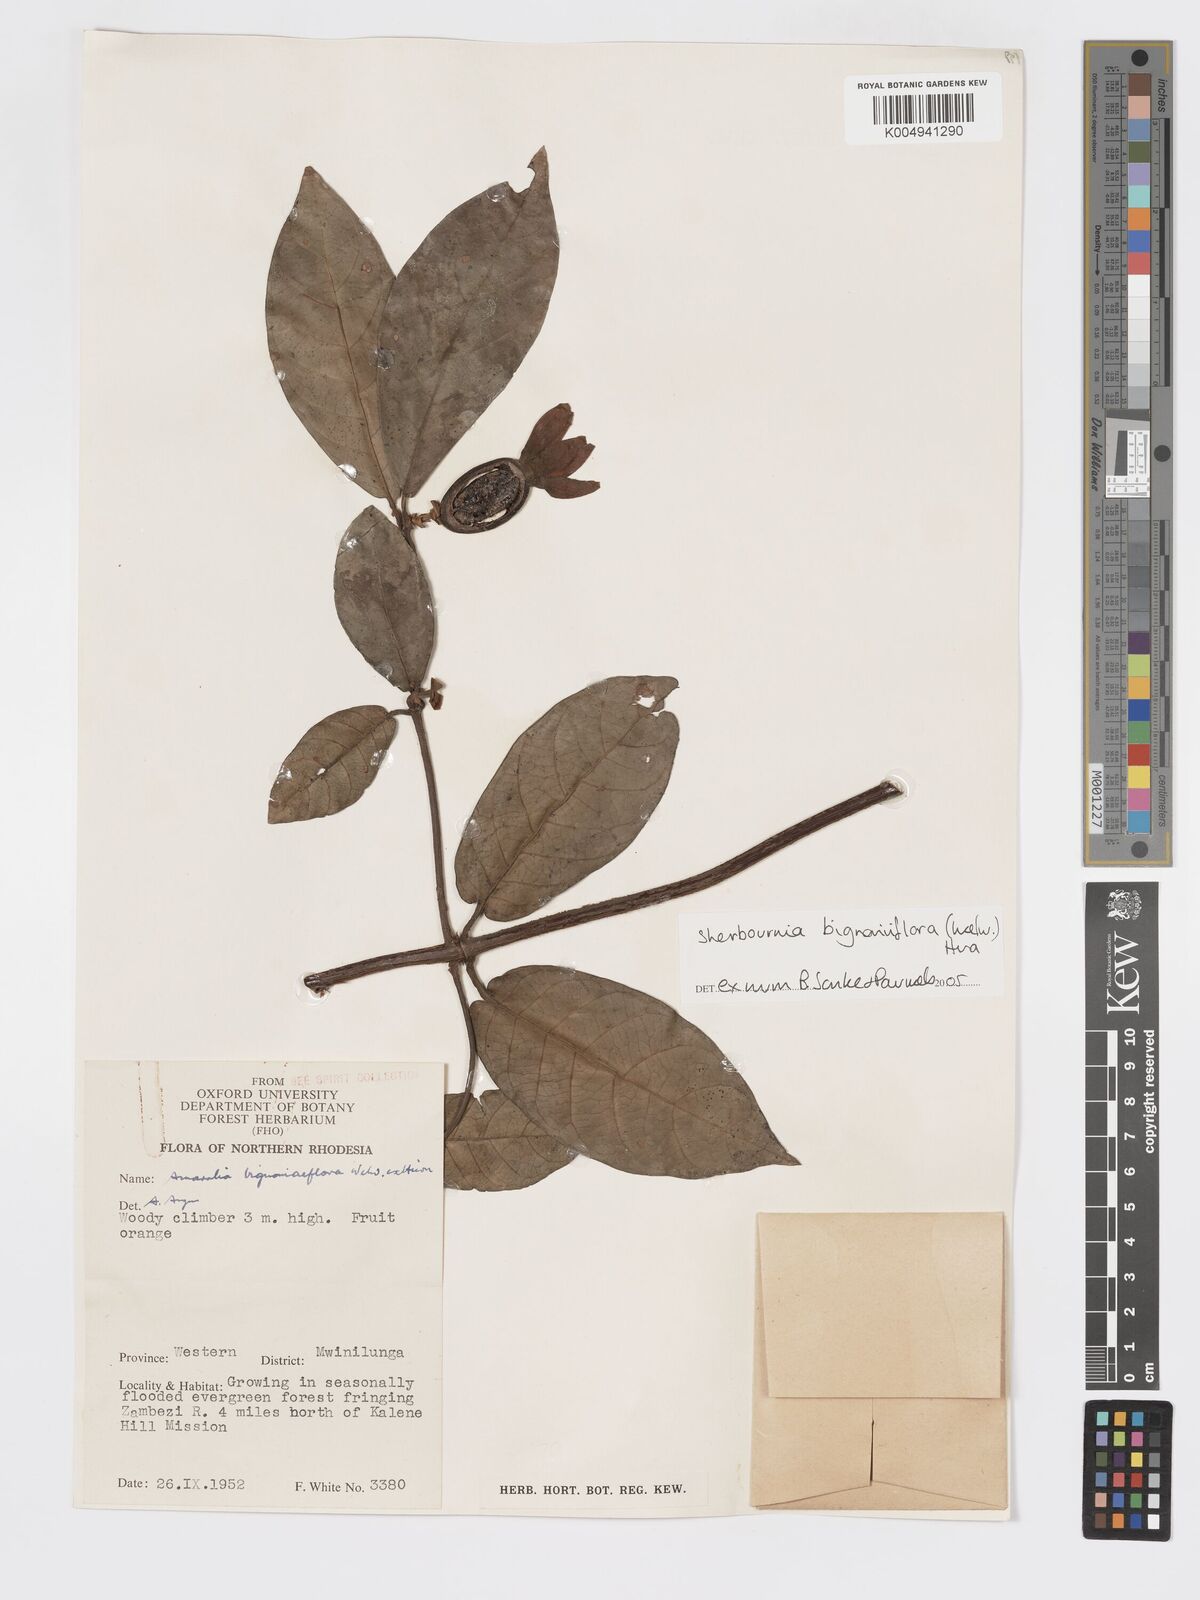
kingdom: Plantae
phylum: Tracheophyta
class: Magnoliopsida
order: Gentianales
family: Rubiaceae
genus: Sherbournia
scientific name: Sherbournia bignoniiflora
